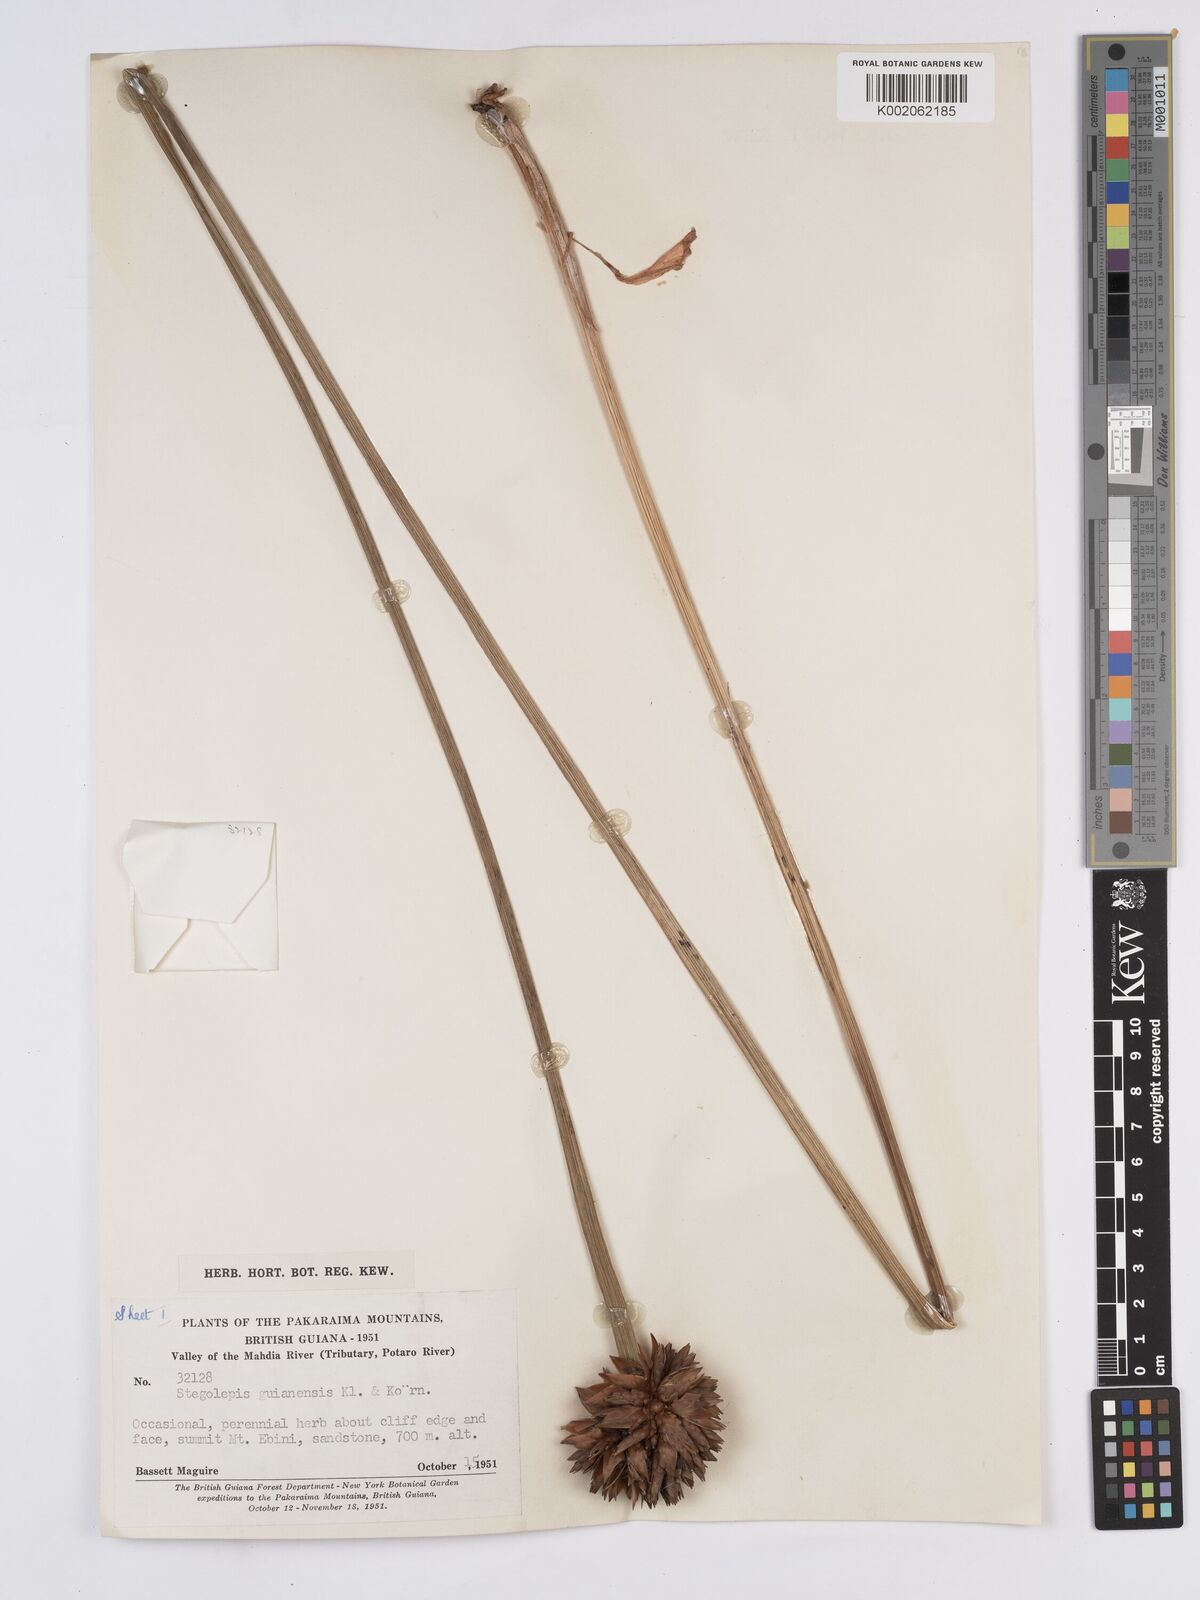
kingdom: Plantae
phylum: Tracheophyta
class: Liliopsida
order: Poales
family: Rapateaceae
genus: Stegolepis
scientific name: Stegolepis guianensis
